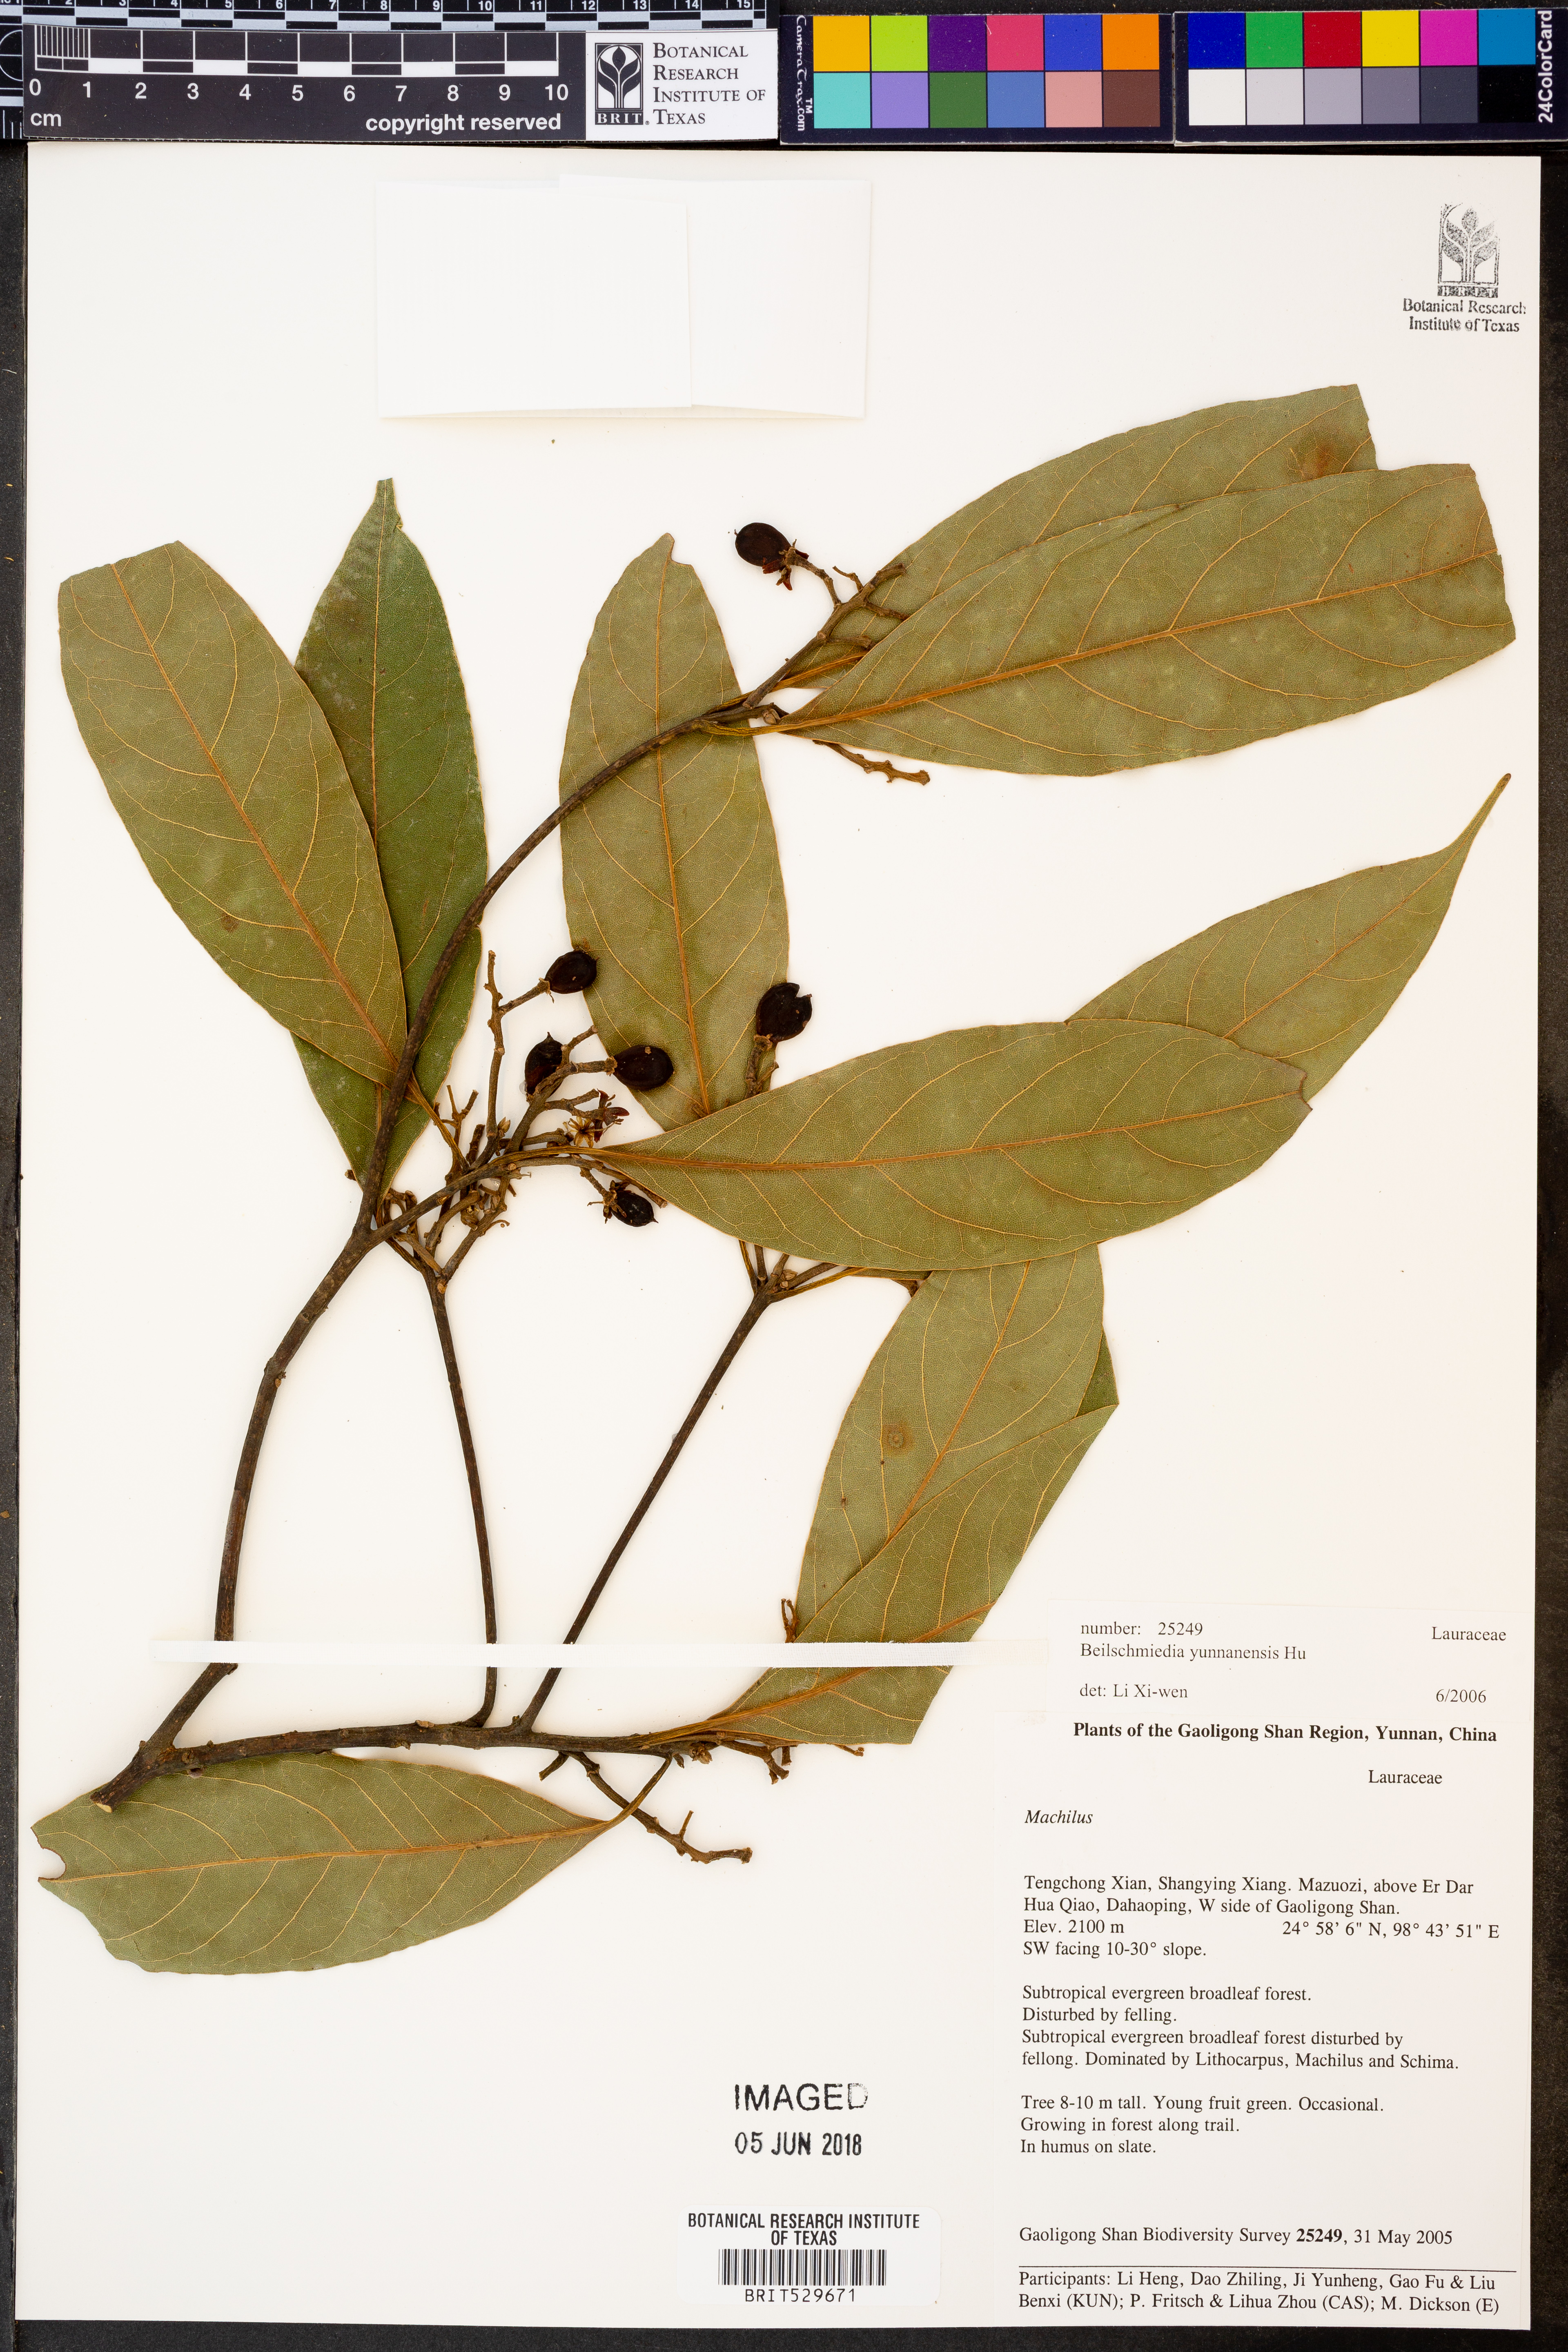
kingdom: Plantae
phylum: Tracheophyta
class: Magnoliopsida
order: Laurales
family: Lauraceae
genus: Beilschmiedia
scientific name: Beilschmiedia yunnanensis
